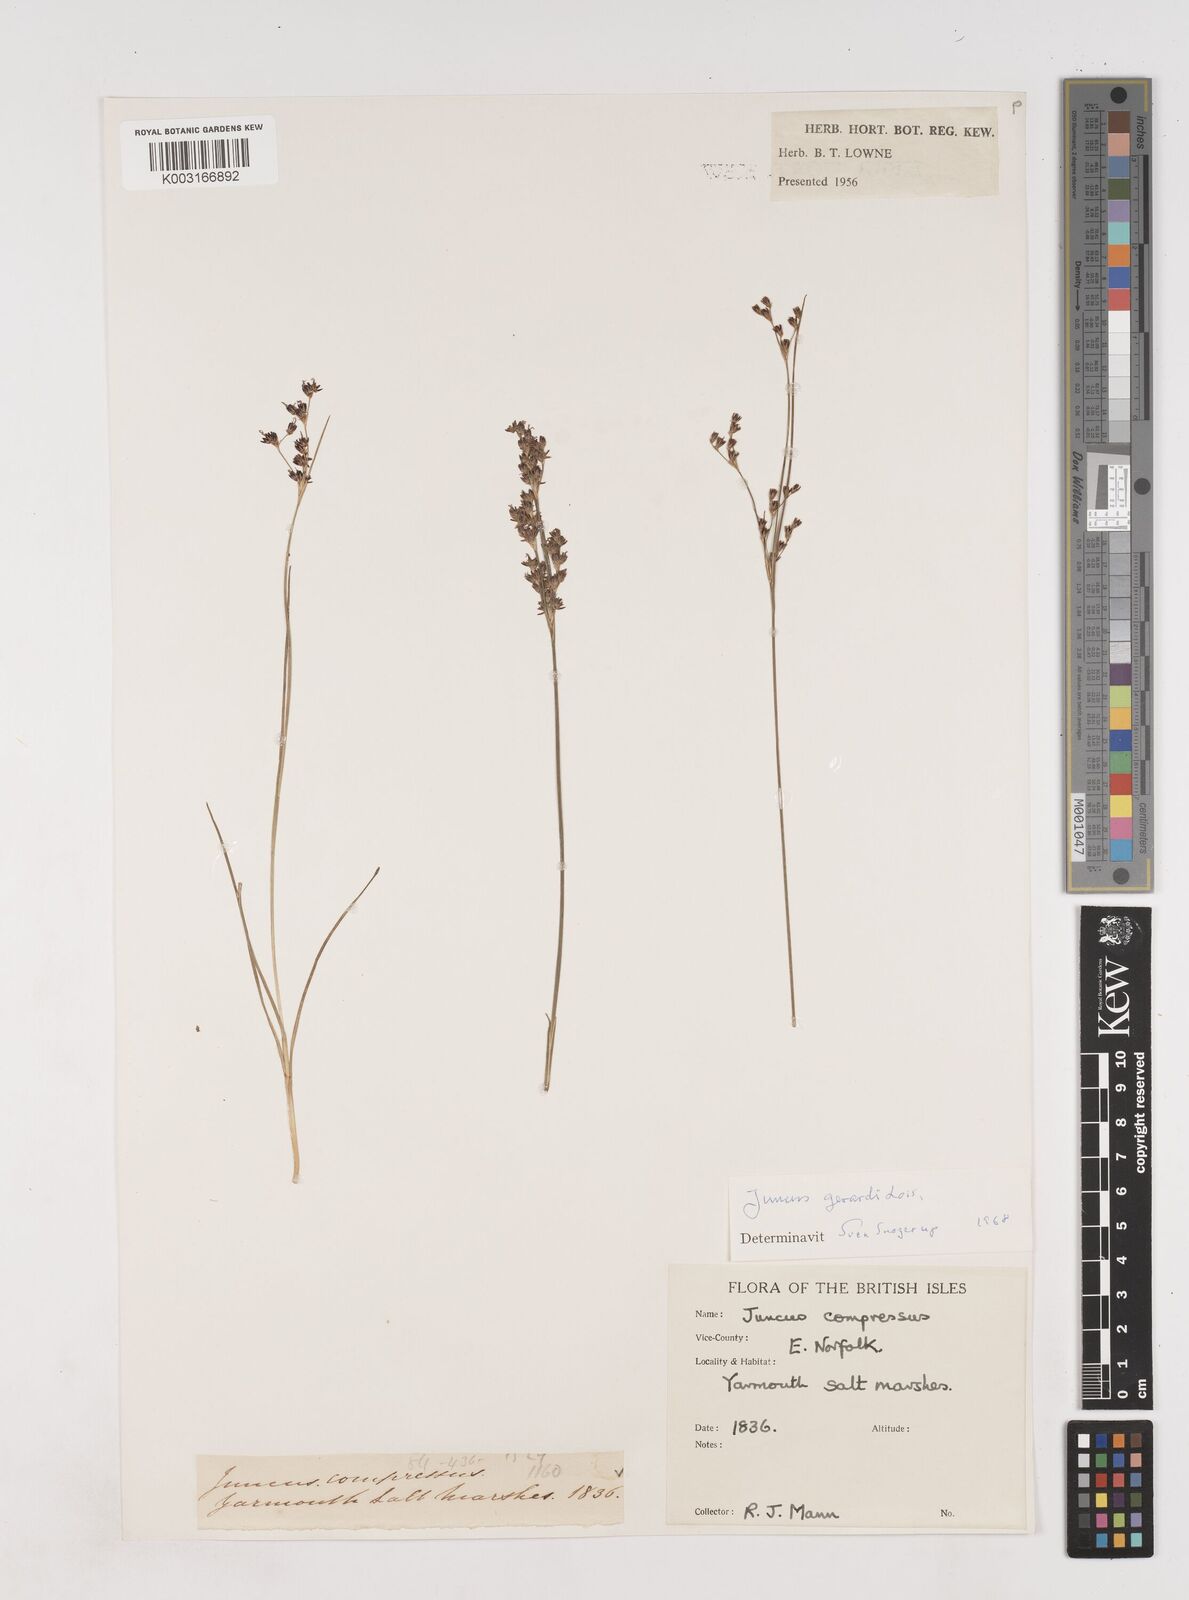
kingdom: Plantae
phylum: Tracheophyta
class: Liliopsida
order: Poales
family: Juncaceae
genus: Juncus
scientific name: Juncus gerardi
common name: Saltmarsh rush
